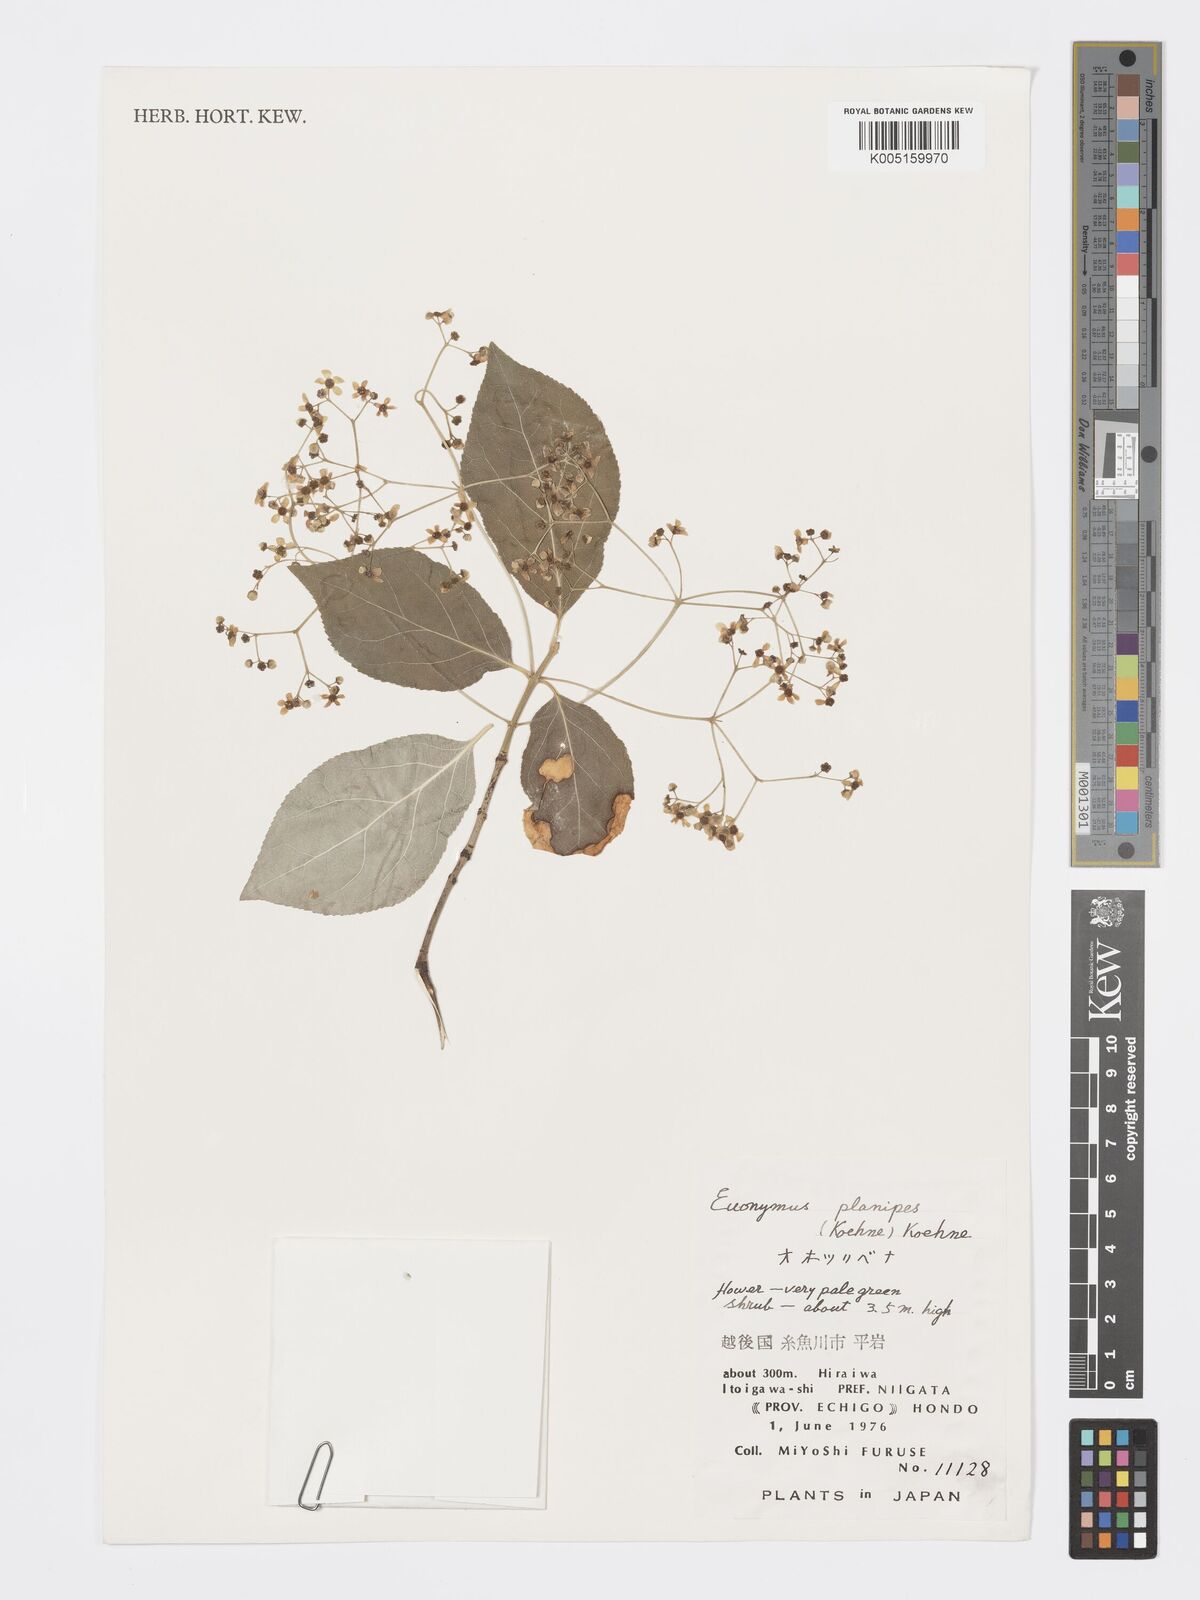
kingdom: Plantae
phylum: Tracheophyta
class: Magnoliopsida
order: Celastrales
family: Celastraceae
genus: Euonymus
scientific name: Euonymus sachalinensis
